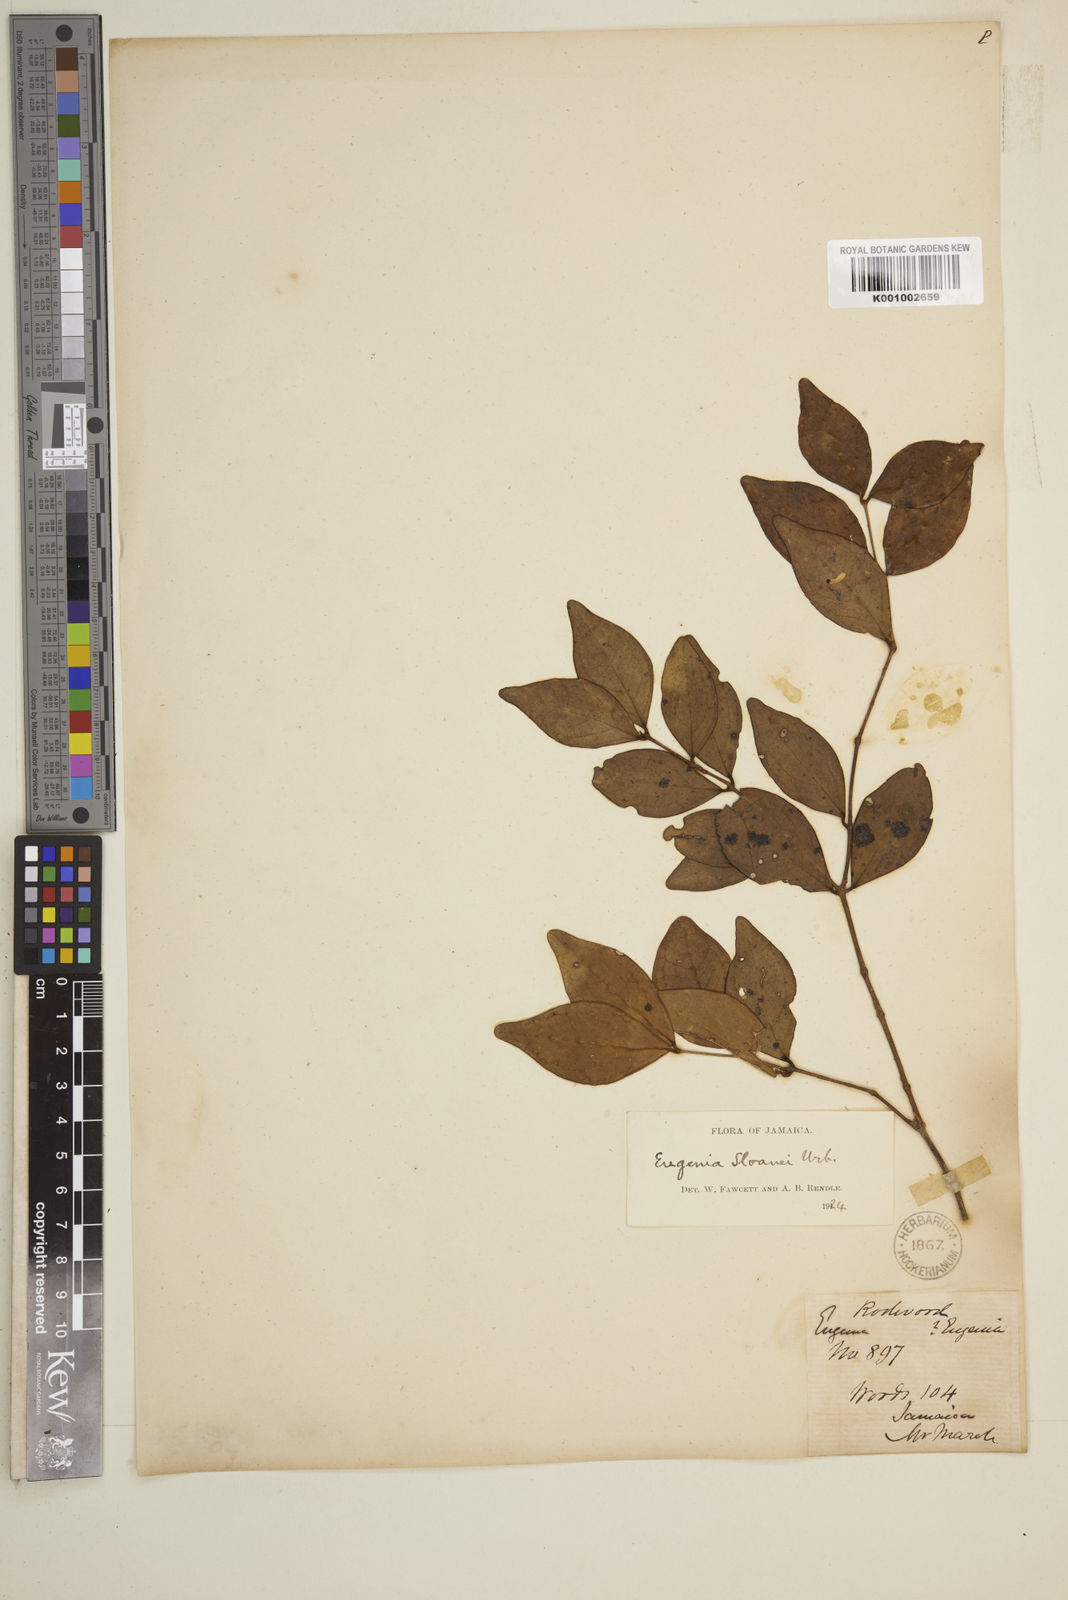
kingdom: Plantae
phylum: Tracheophyta
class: Magnoliopsida
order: Myrtales
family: Myrtaceae
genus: Eugenia
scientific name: Eugenia
